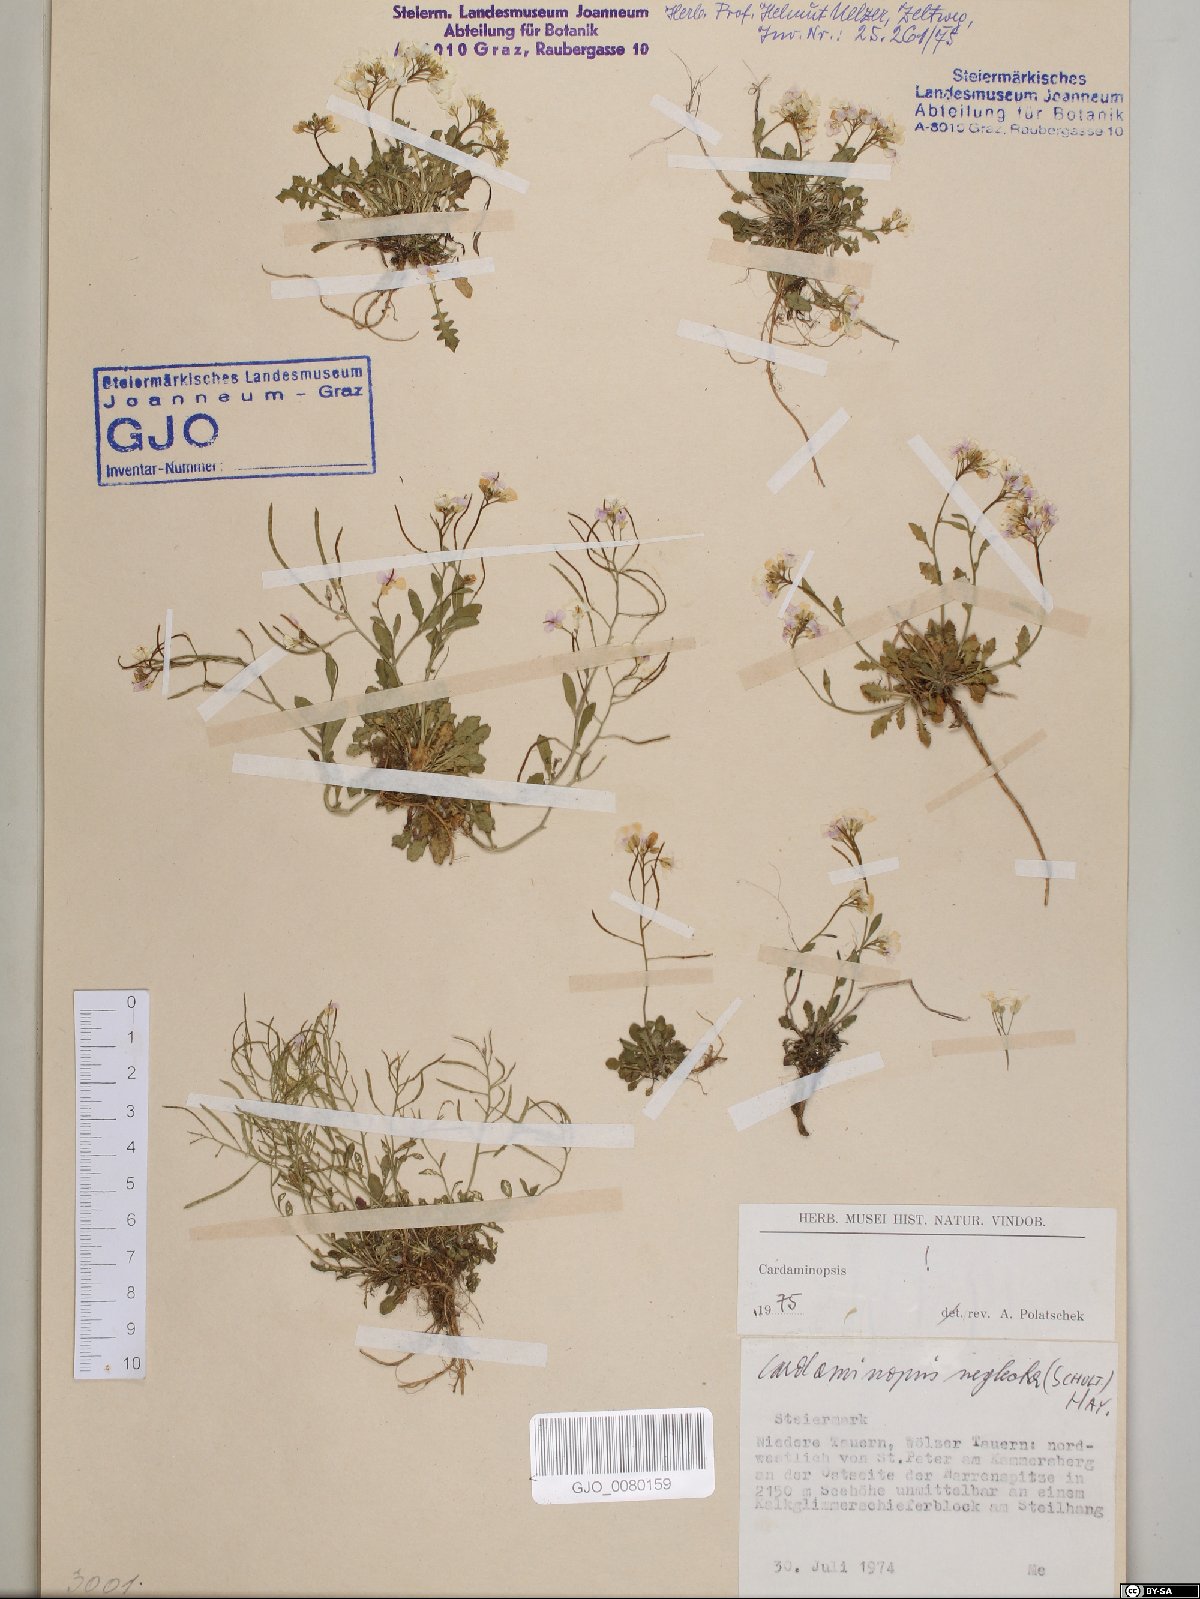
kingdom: Plantae
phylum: Tracheophyta
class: Magnoliopsida
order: Brassicales
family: Brassicaceae
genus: Arabidopsis
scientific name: Arabidopsis neglecta
